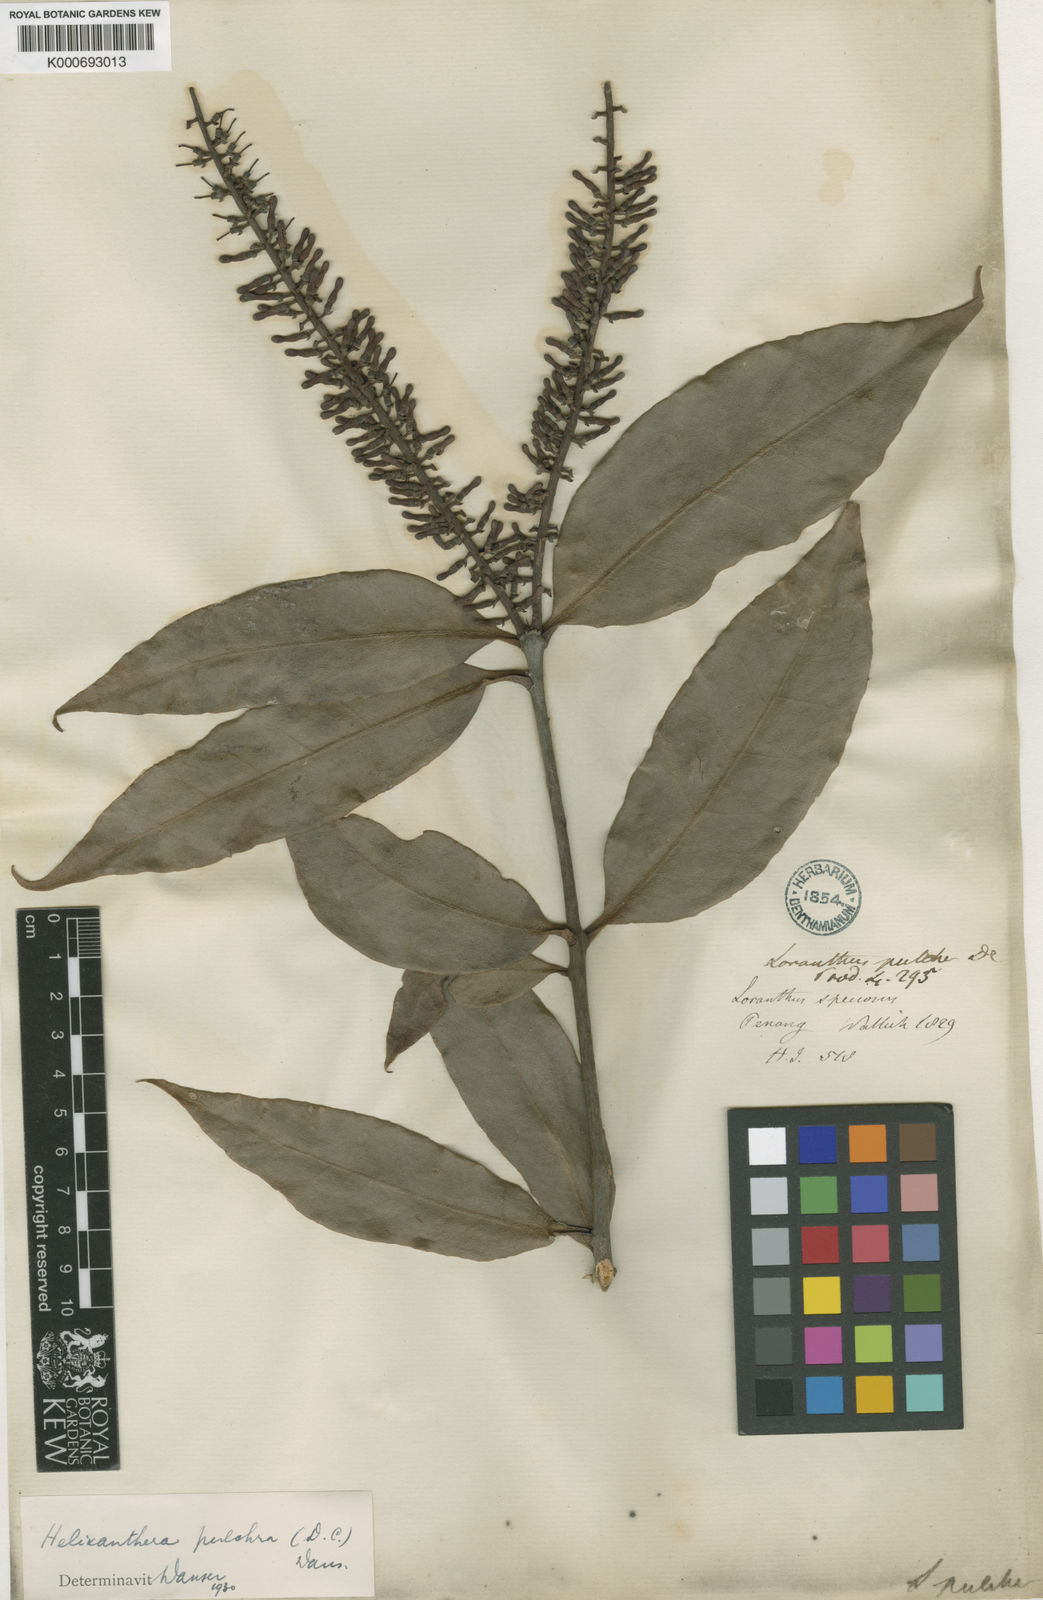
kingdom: Plantae
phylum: Tracheophyta
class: Magnoliopsida
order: Santalales
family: Loranthaceae
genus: Helixanthera
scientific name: Helixanthera pulchra
